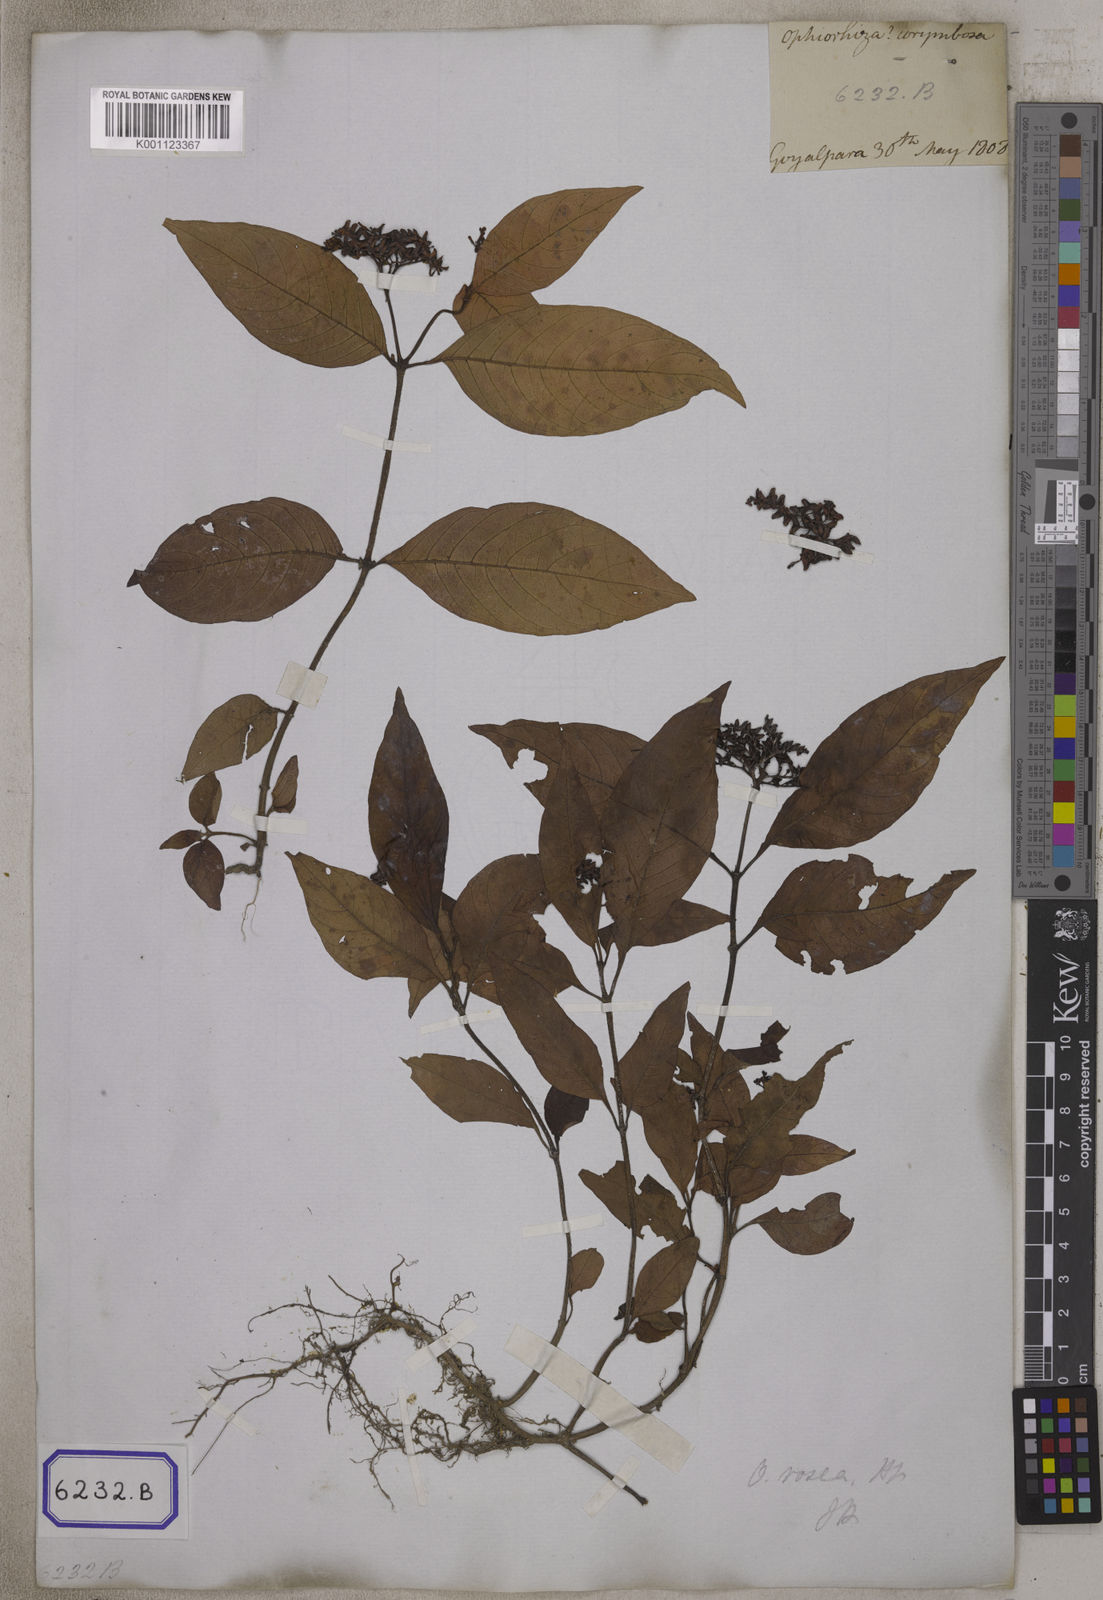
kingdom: Plantae
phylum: Tracheophyta
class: Magnoliopsida
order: Gentianales
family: Rubiaceae
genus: Ophiorrhiza
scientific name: Ophiorrhiza
